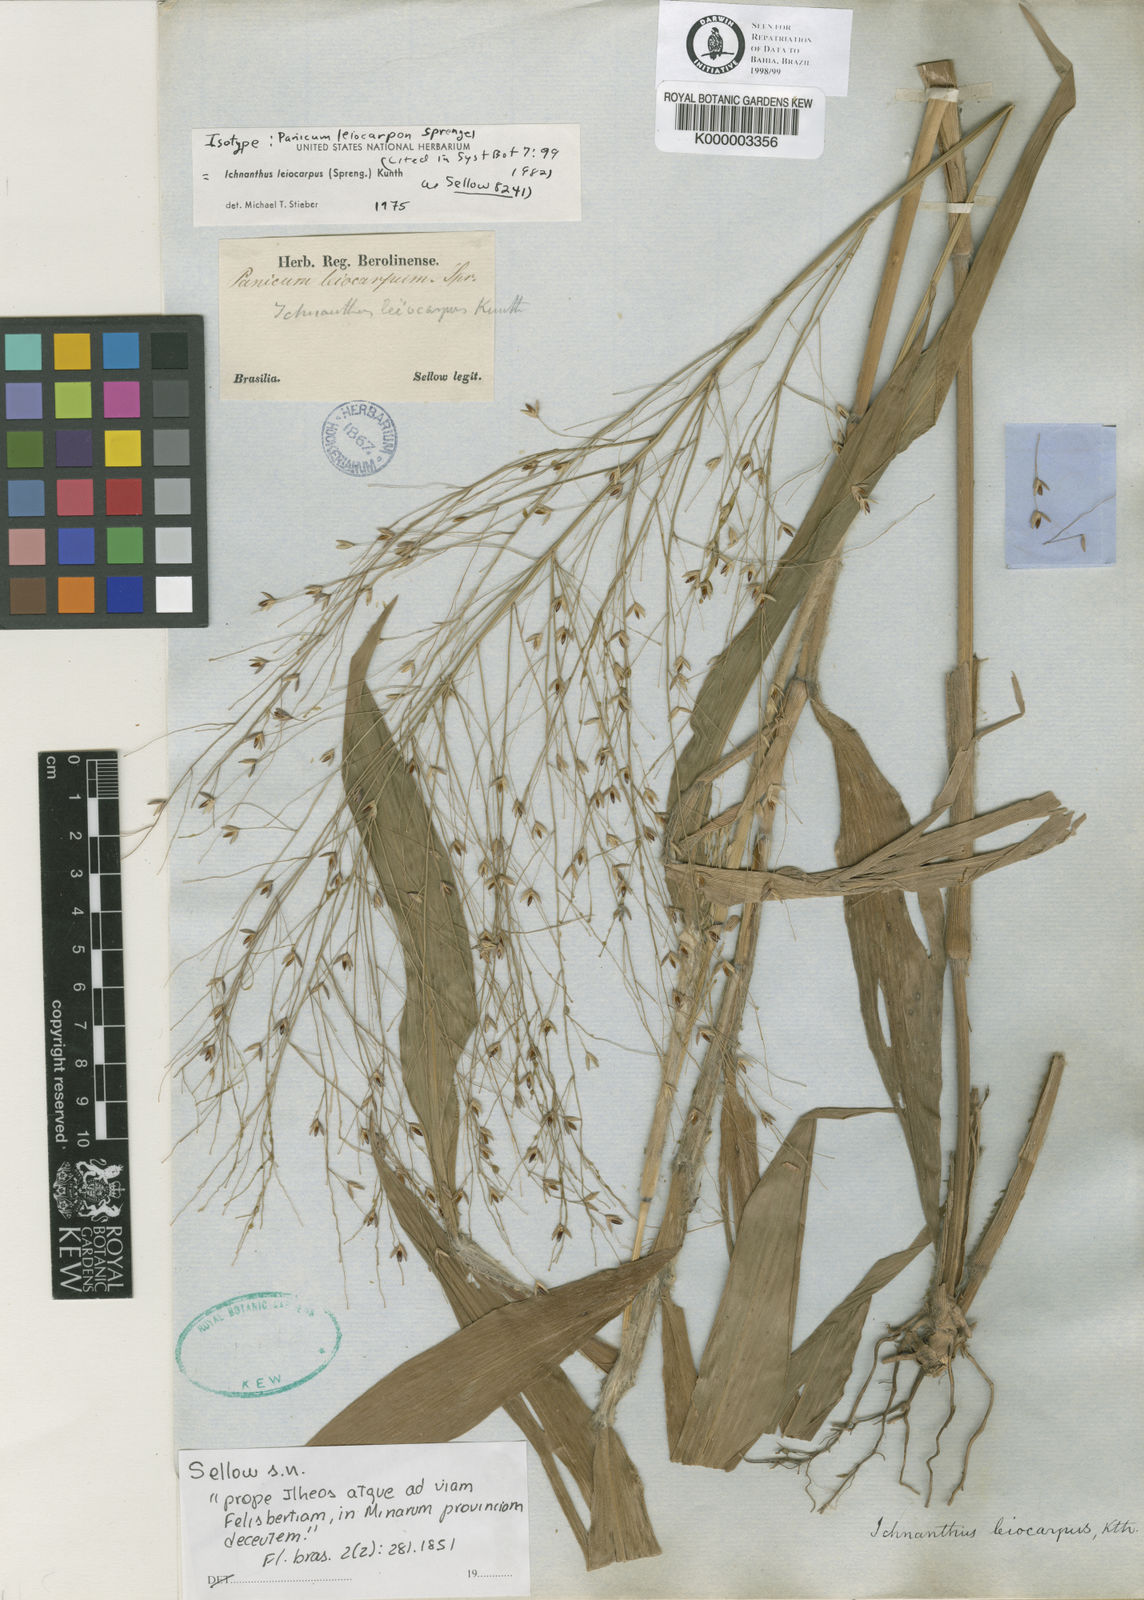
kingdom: Plantae
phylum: Tracheophyta
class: Liliopsida
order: Poales
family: Poaceae
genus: Ichnanthus
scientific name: Ichnanthus leiocarpus
